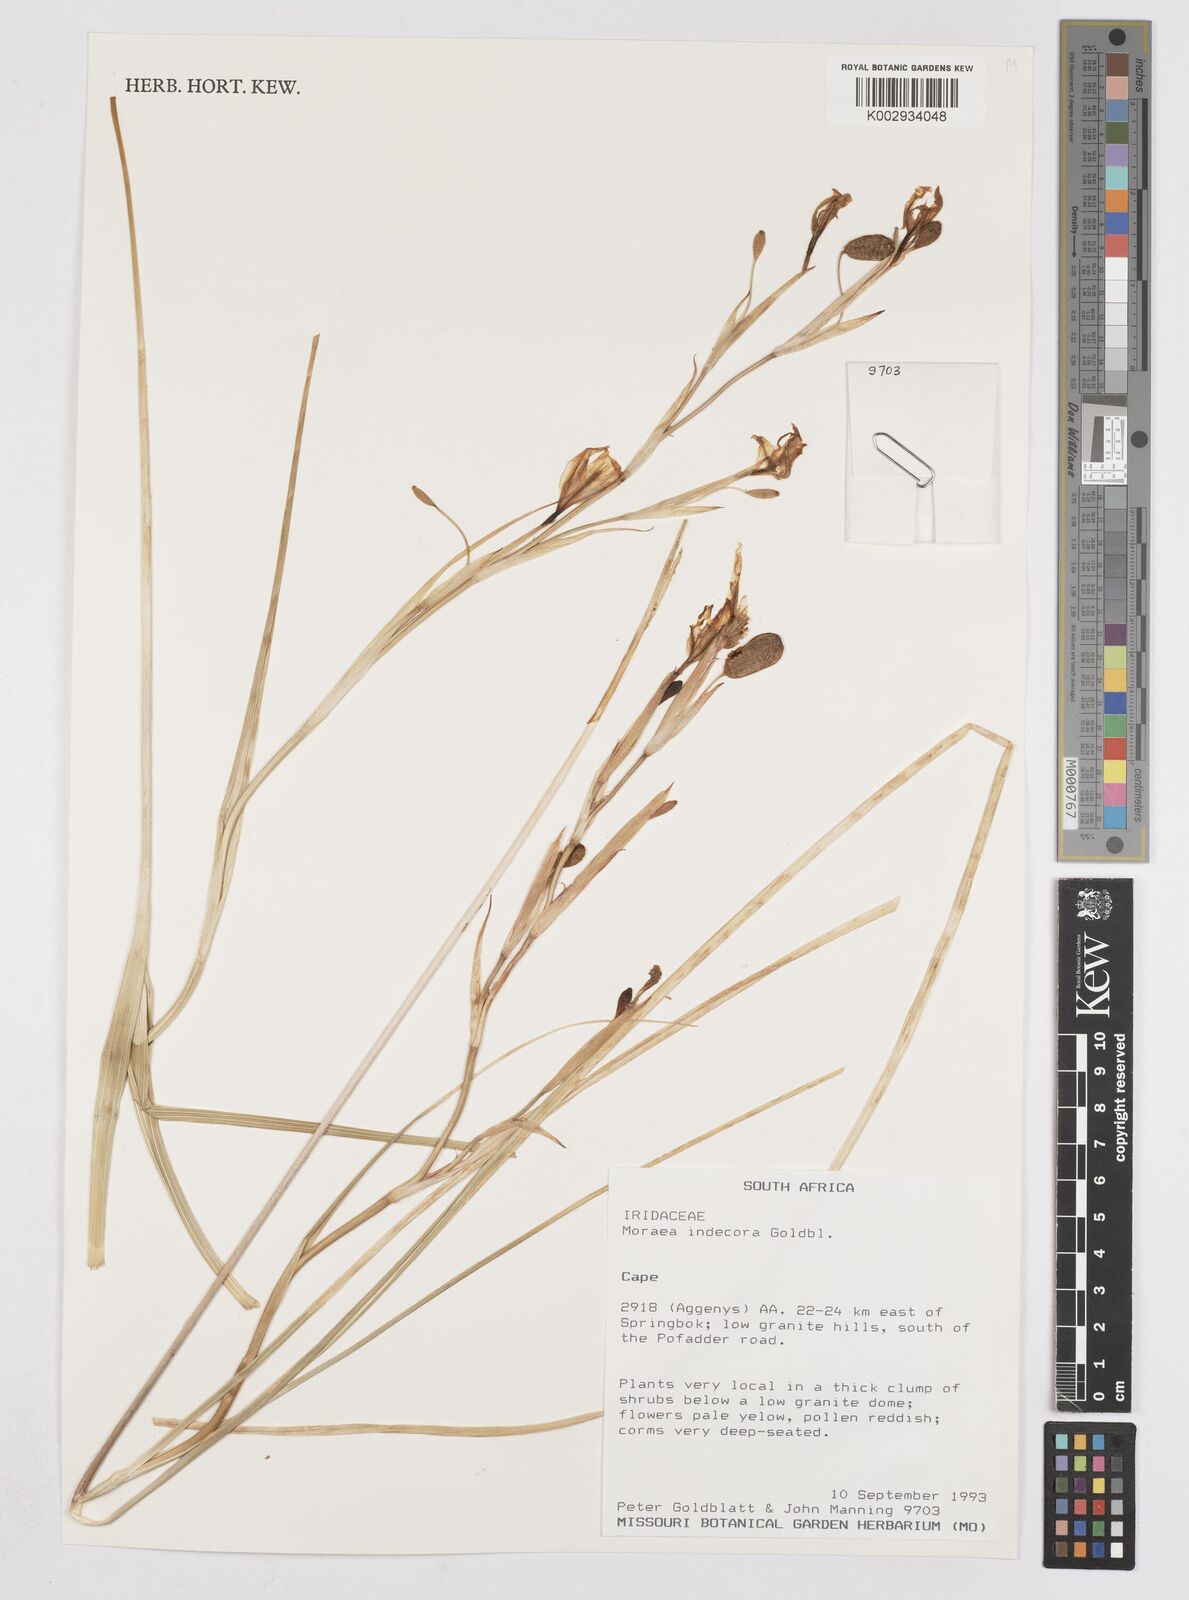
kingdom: Plantae
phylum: Tracheophyta
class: Liliopsida
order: Asparagales
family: Iridaceae
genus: Moraea
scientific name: Moraea indecora
